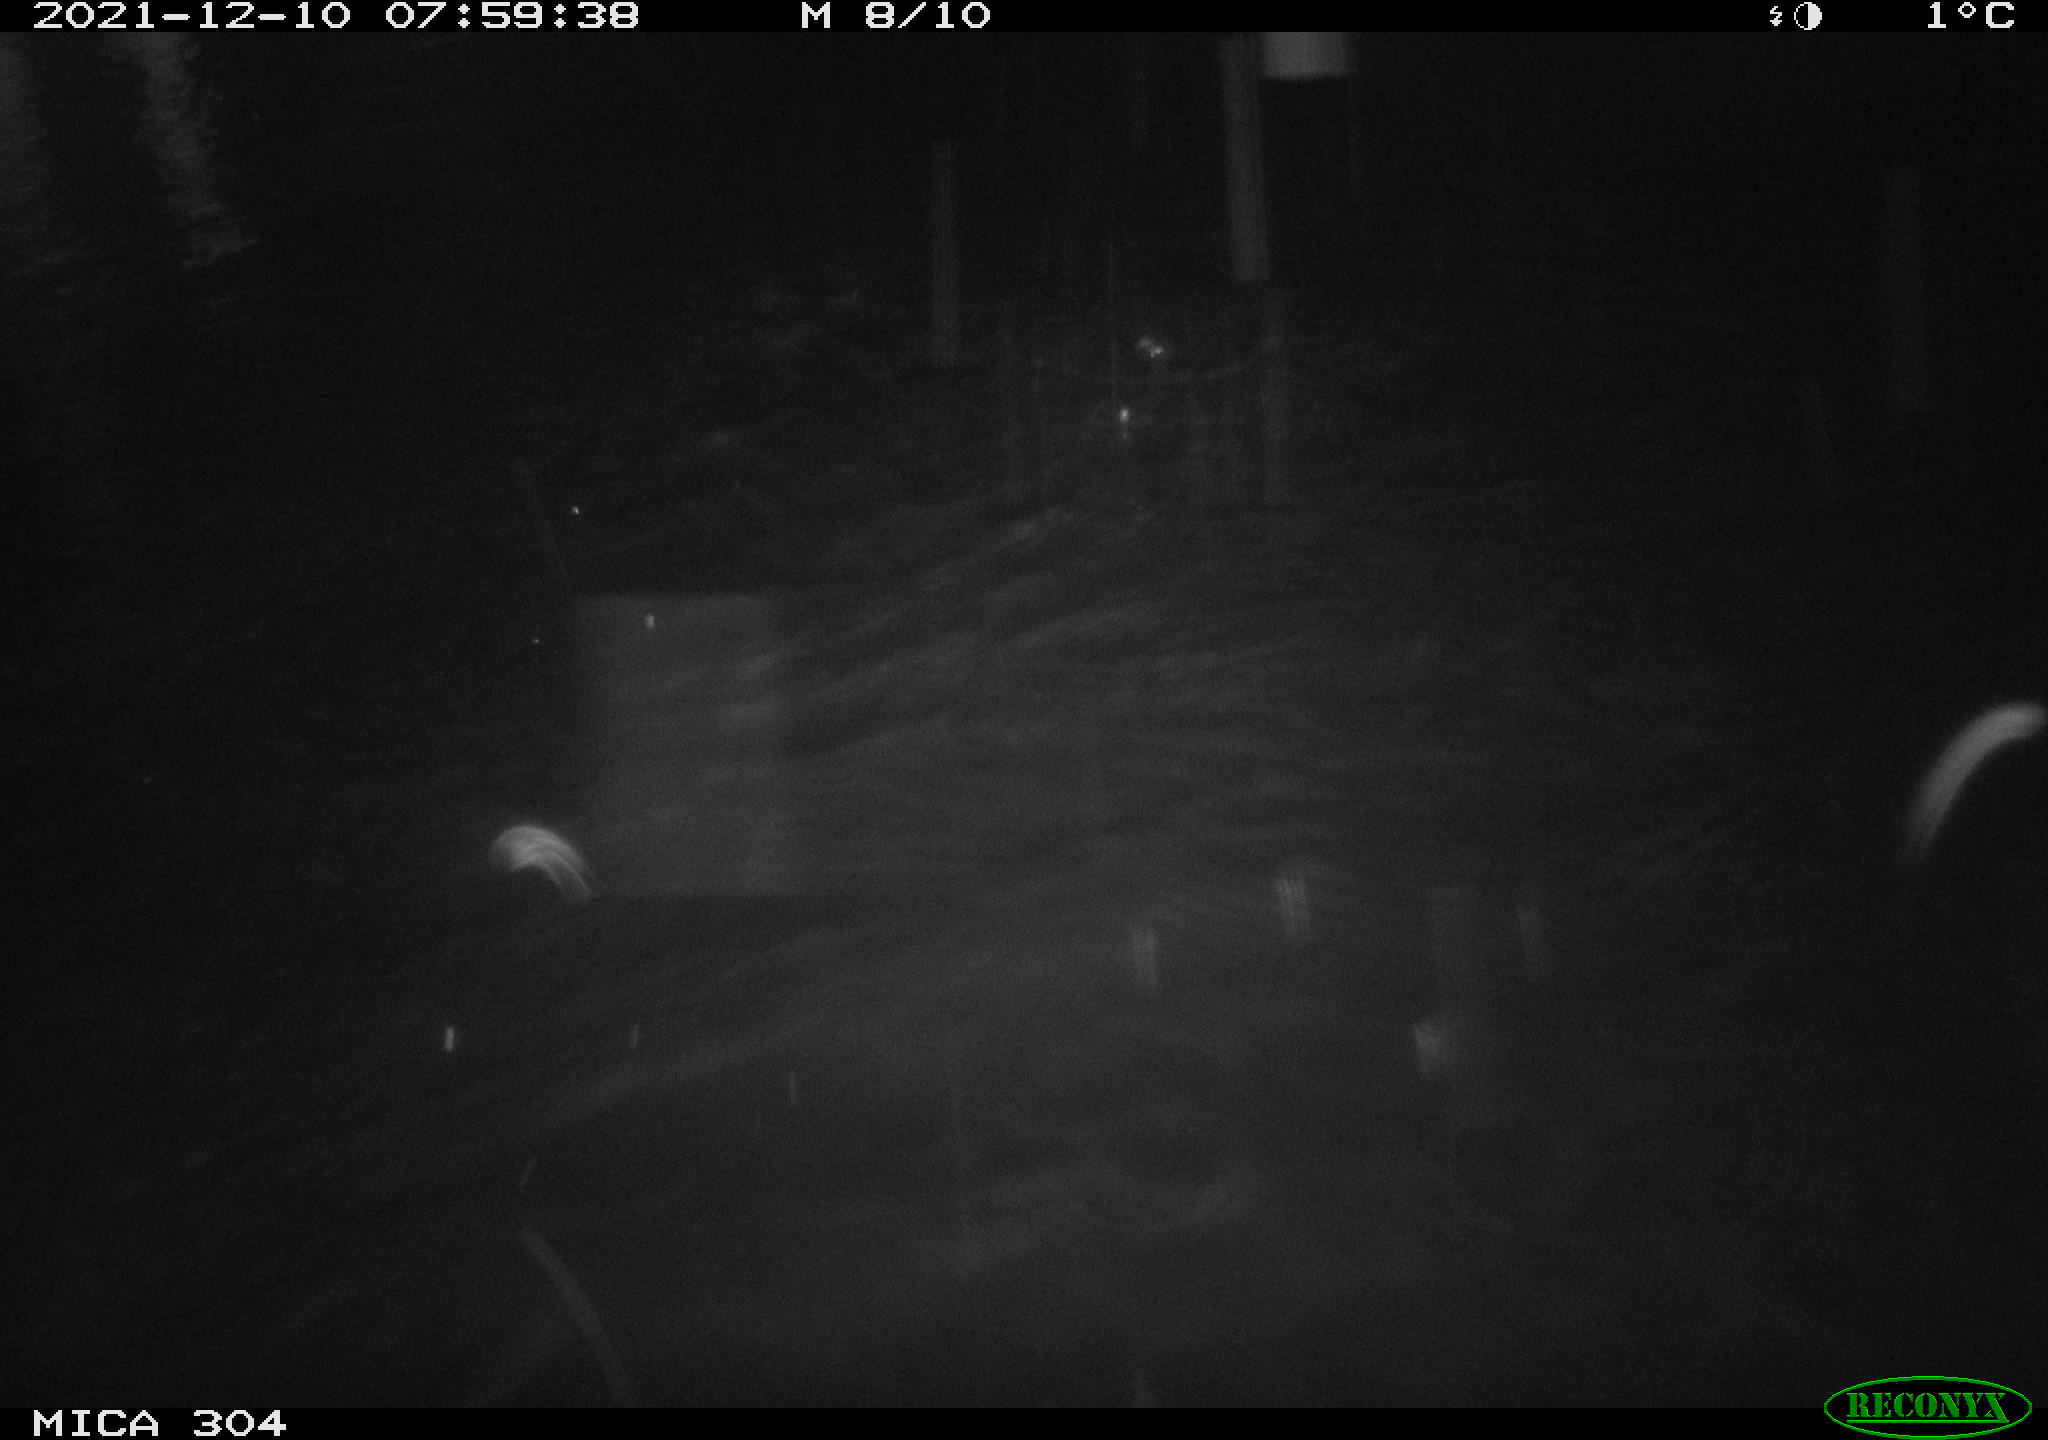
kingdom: Animalia
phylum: Chordata
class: Aves
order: Gruiformes
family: Rallidae
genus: Fulica
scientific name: Fulica atra
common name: Eurasian coot
